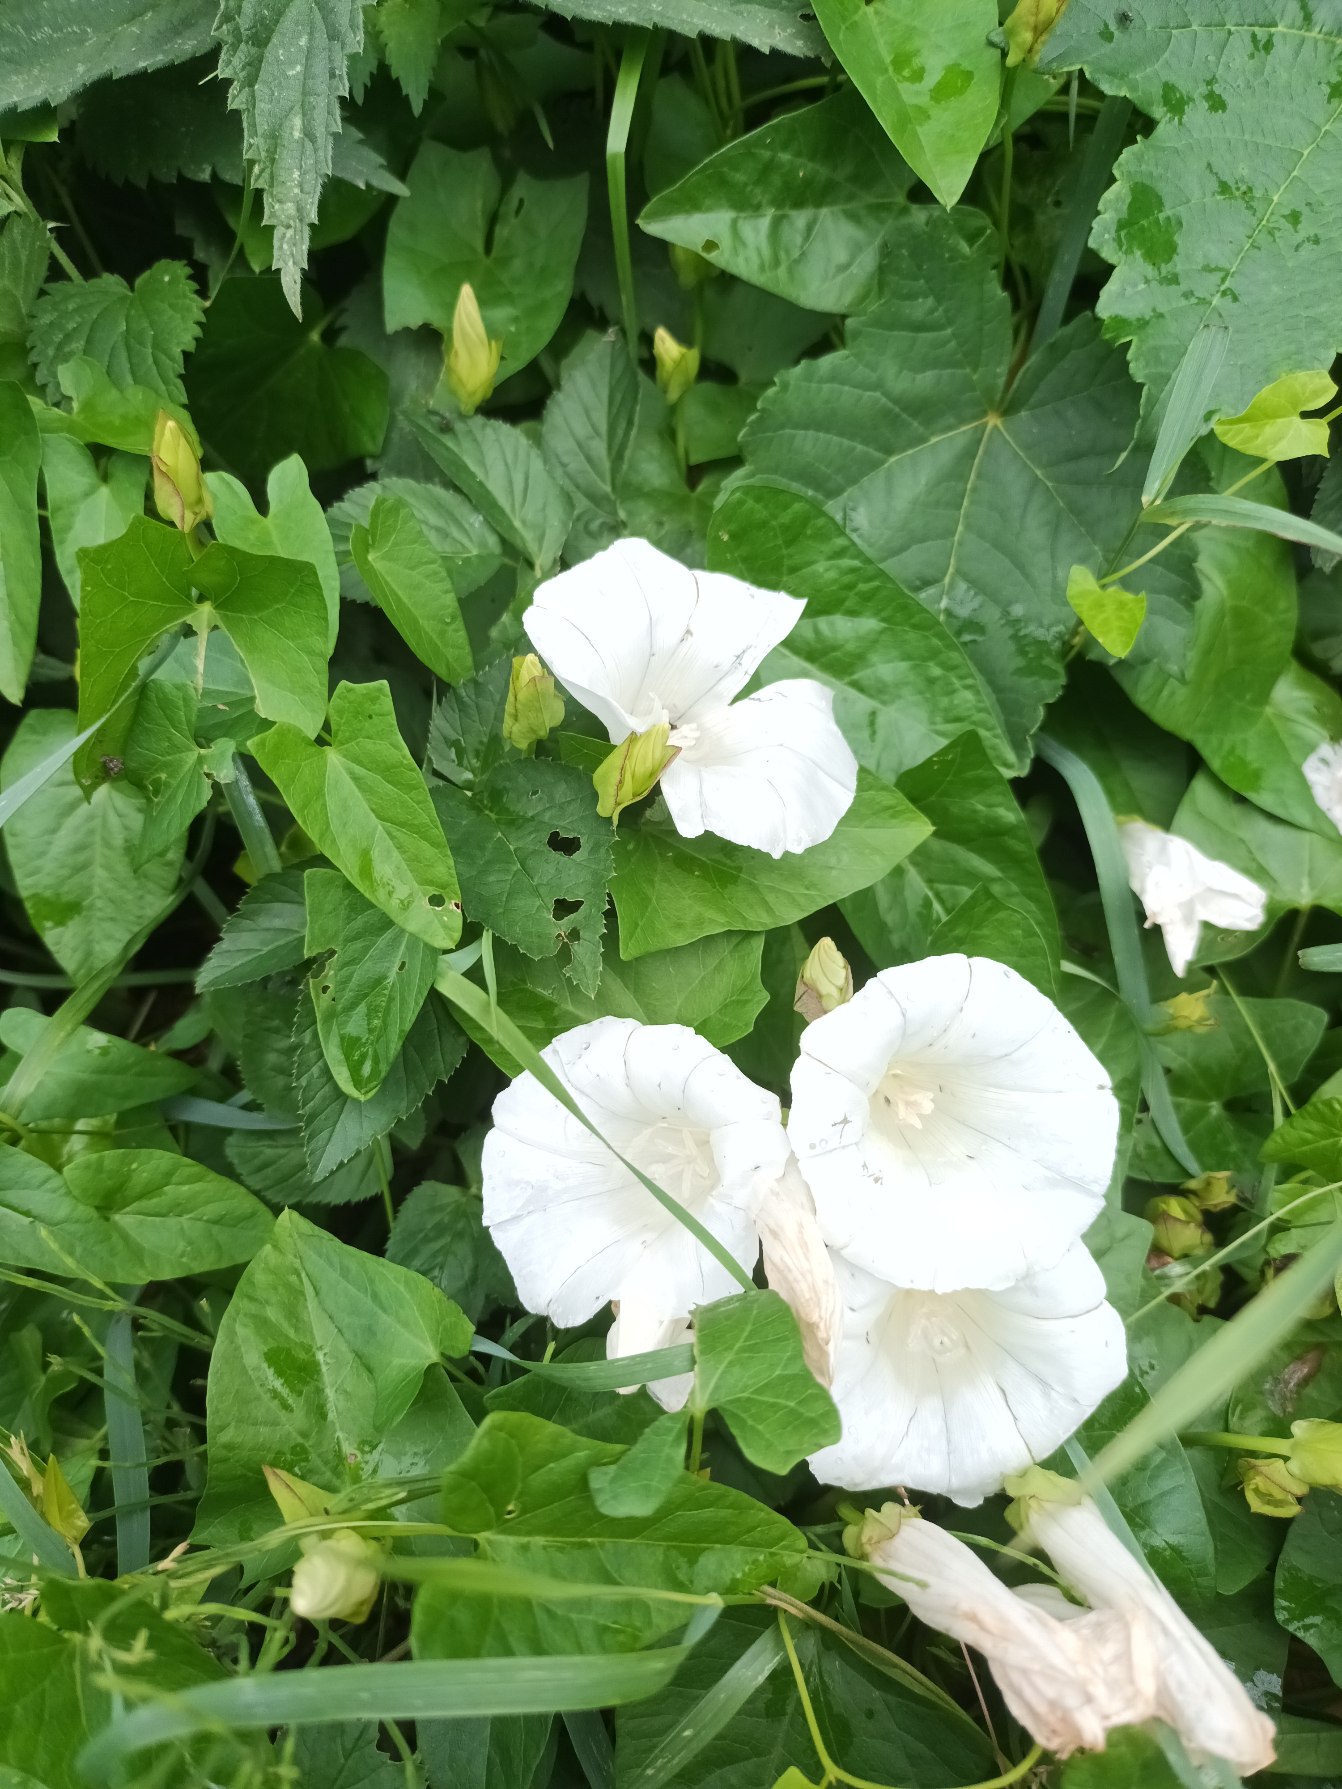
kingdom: Plantae
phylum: Tracheophyta
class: Magnoliopsida
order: Solanales
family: Convolvulaceae
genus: Calystegia
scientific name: Calystegia sepium
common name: Gærde-snerle
